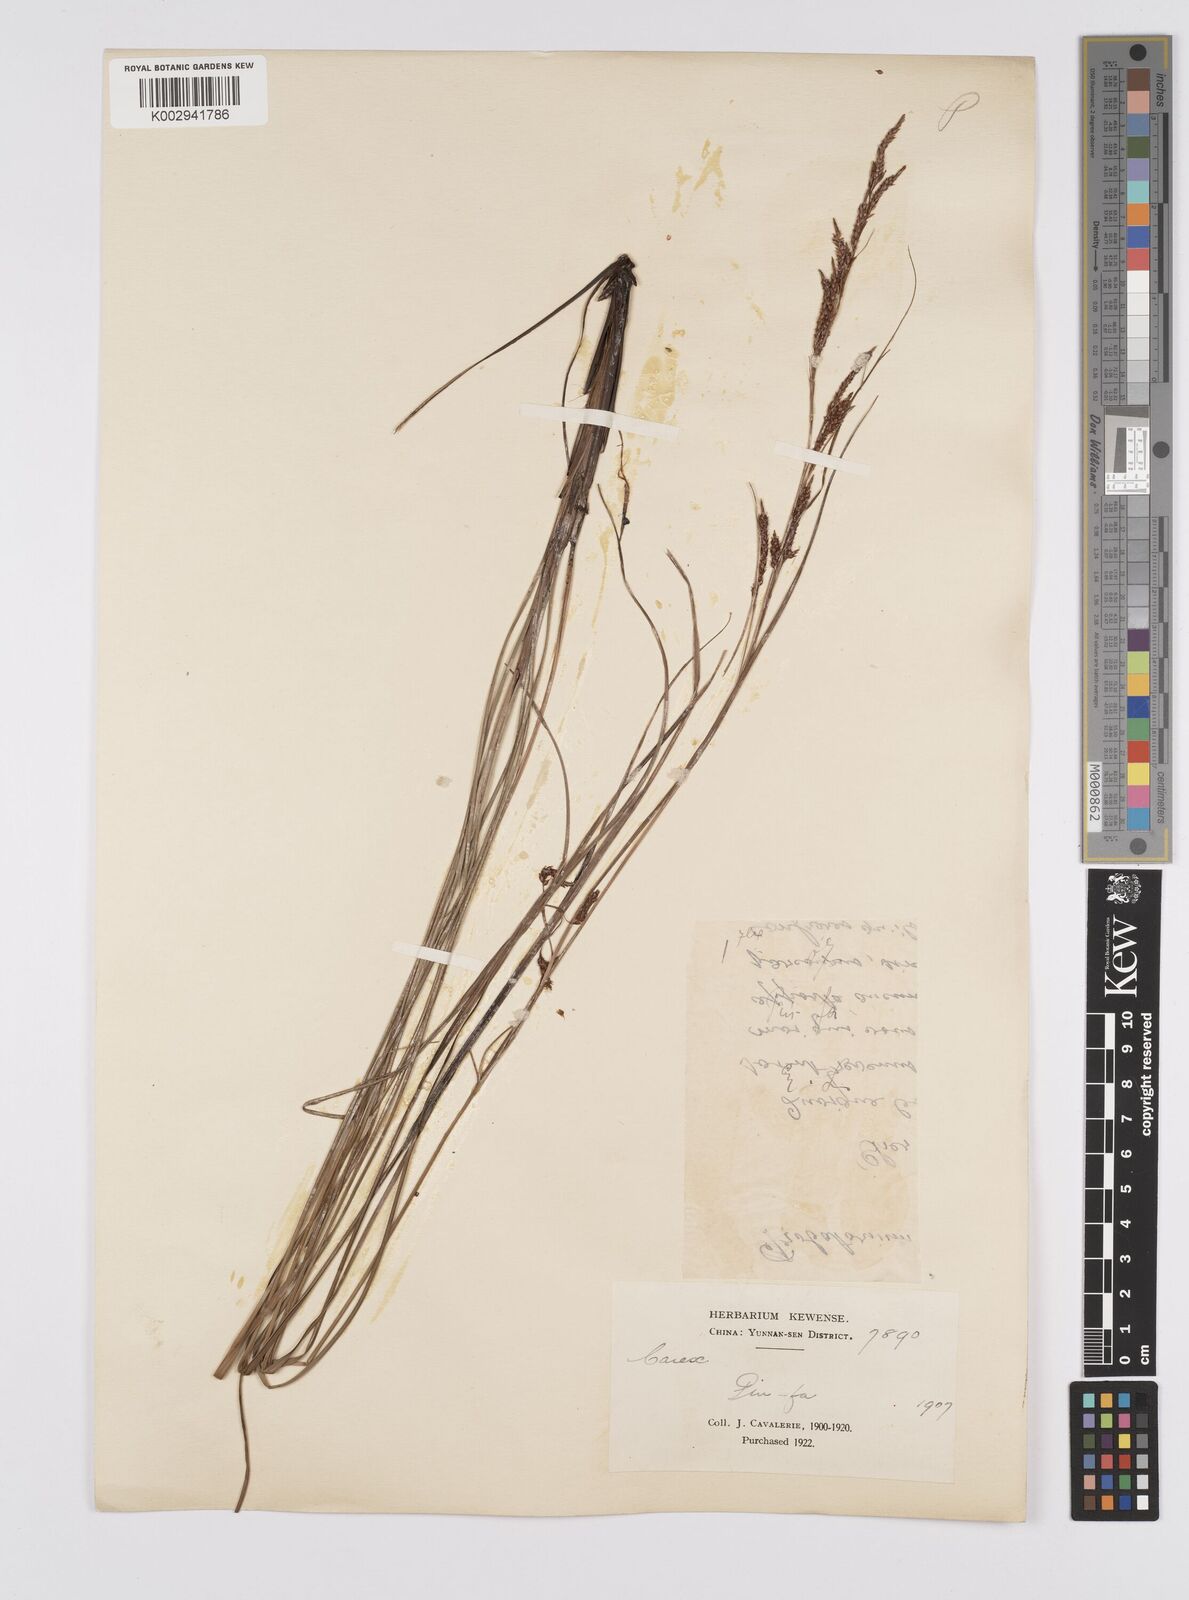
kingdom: Plantae
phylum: Tracheophyta
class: Liliopsida
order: Poales
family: Cyperaceae
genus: Carex
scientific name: Carex brunnea
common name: Greater brown sedge
